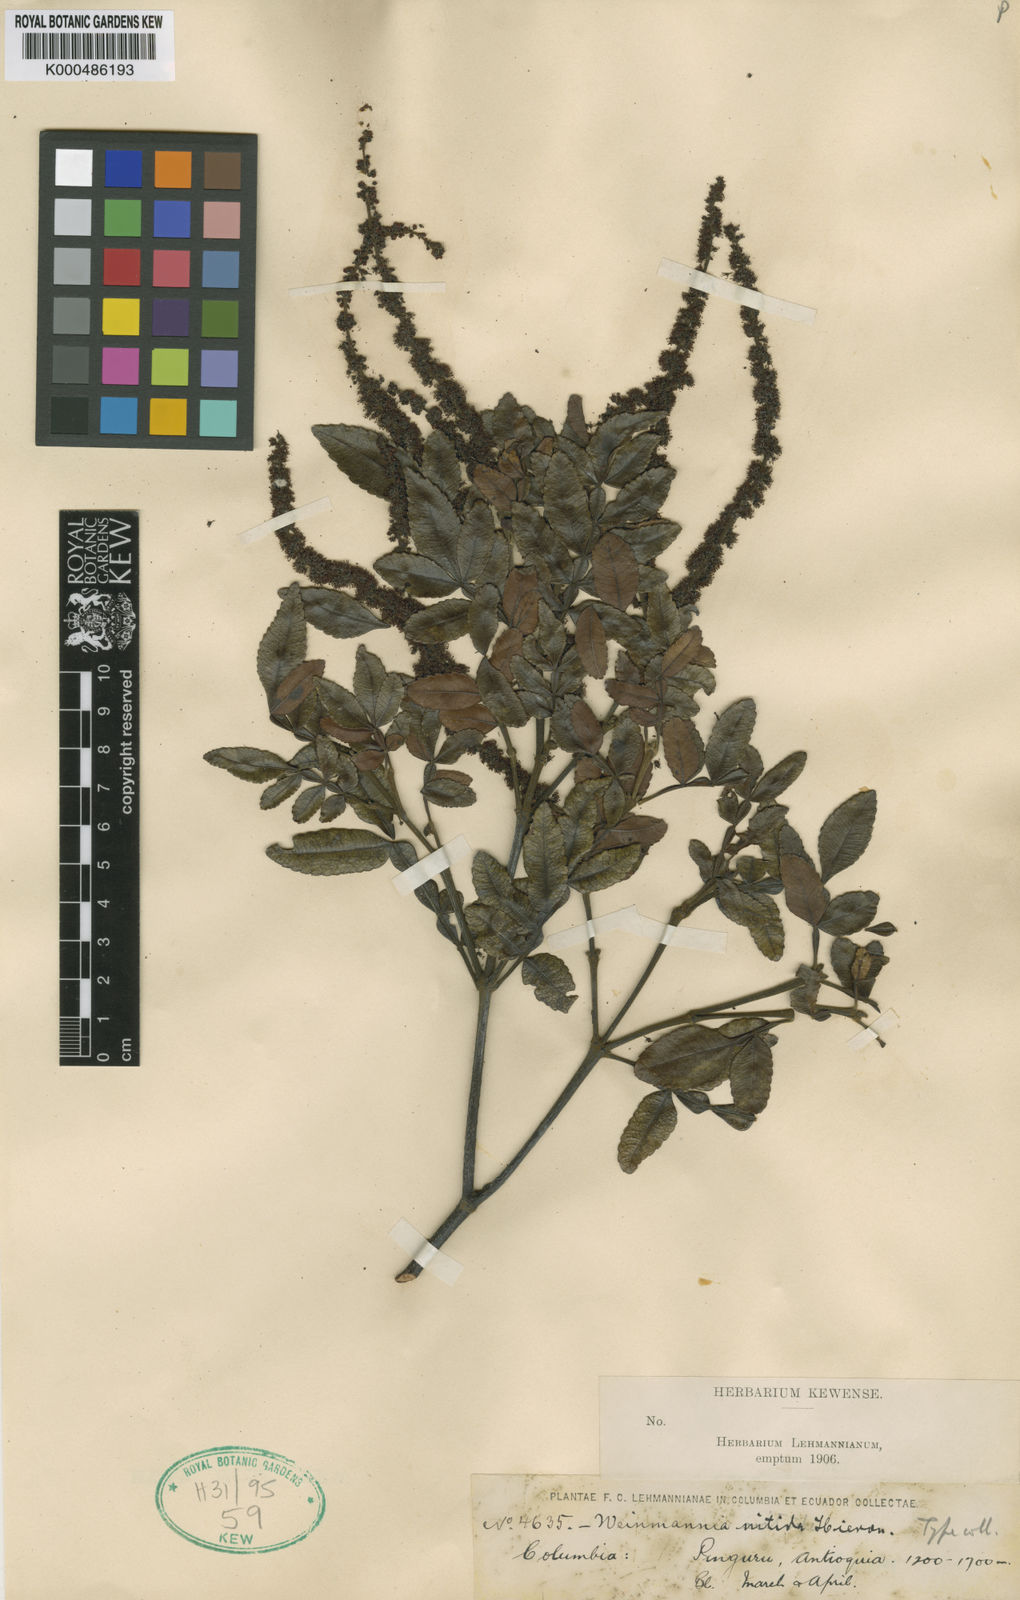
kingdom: Plantae
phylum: Tracheophyta
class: Magnoliopsida
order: Oxalidales
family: Cunoniaceae
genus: Weinmannia
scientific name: Weinmannia pinnata
